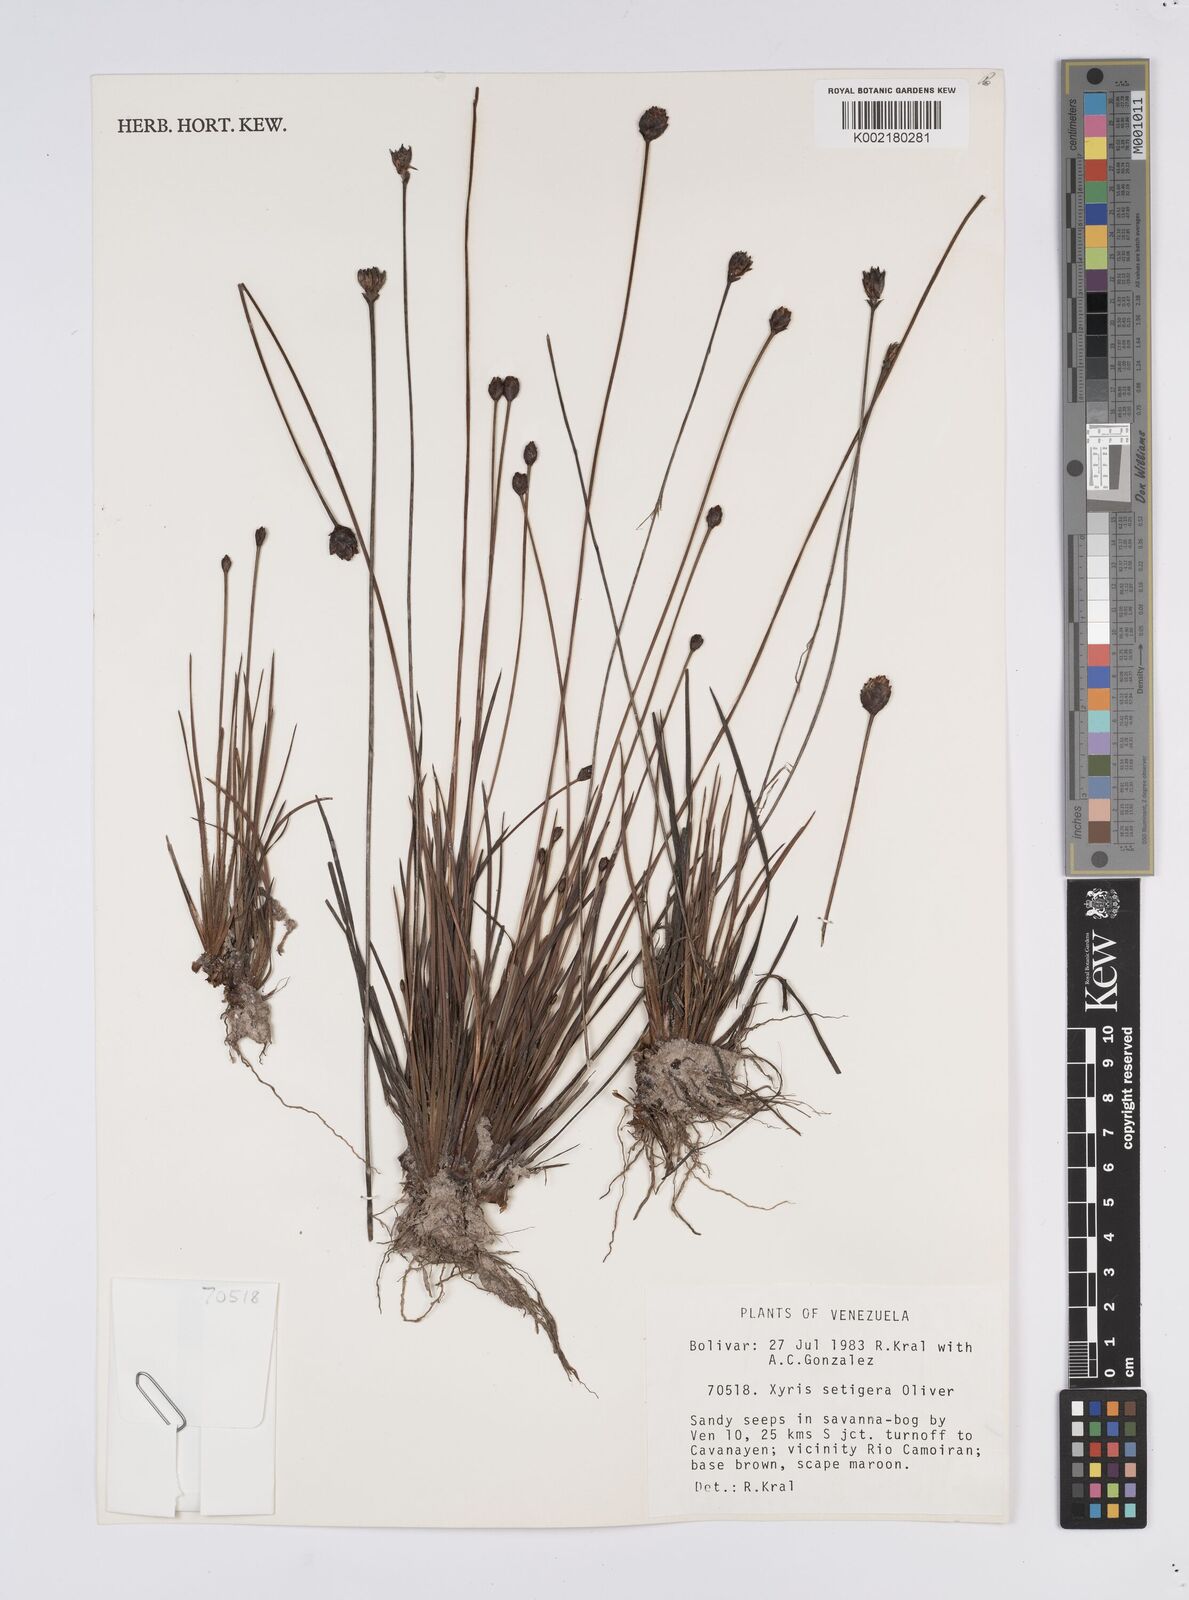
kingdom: Plantae
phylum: Tracheophyta
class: Liliopsida
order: Poales
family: Xyridaceae
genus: Xyris
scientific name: Xyris setigera
